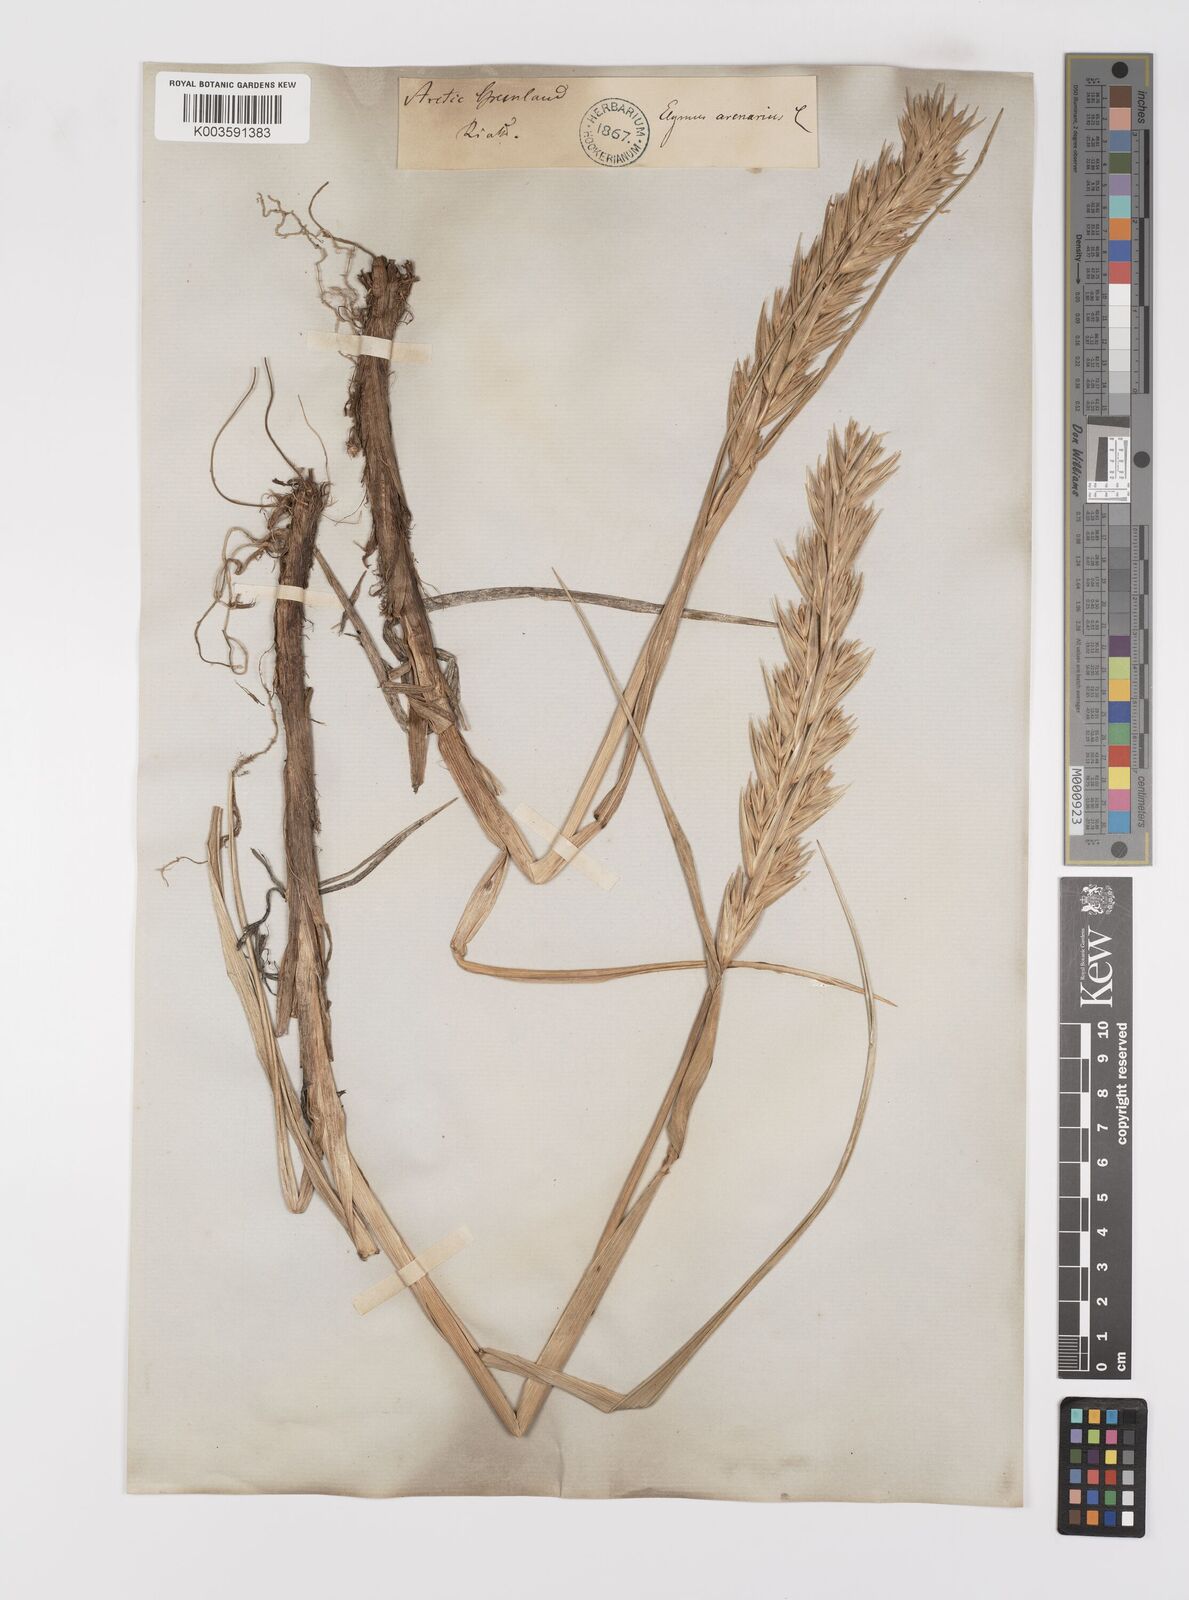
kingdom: Plantae
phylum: Tracheophyta
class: Liliopsida
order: Poales
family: Poaceae
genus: Leymus
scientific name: Leymus mollis
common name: American dune grass
